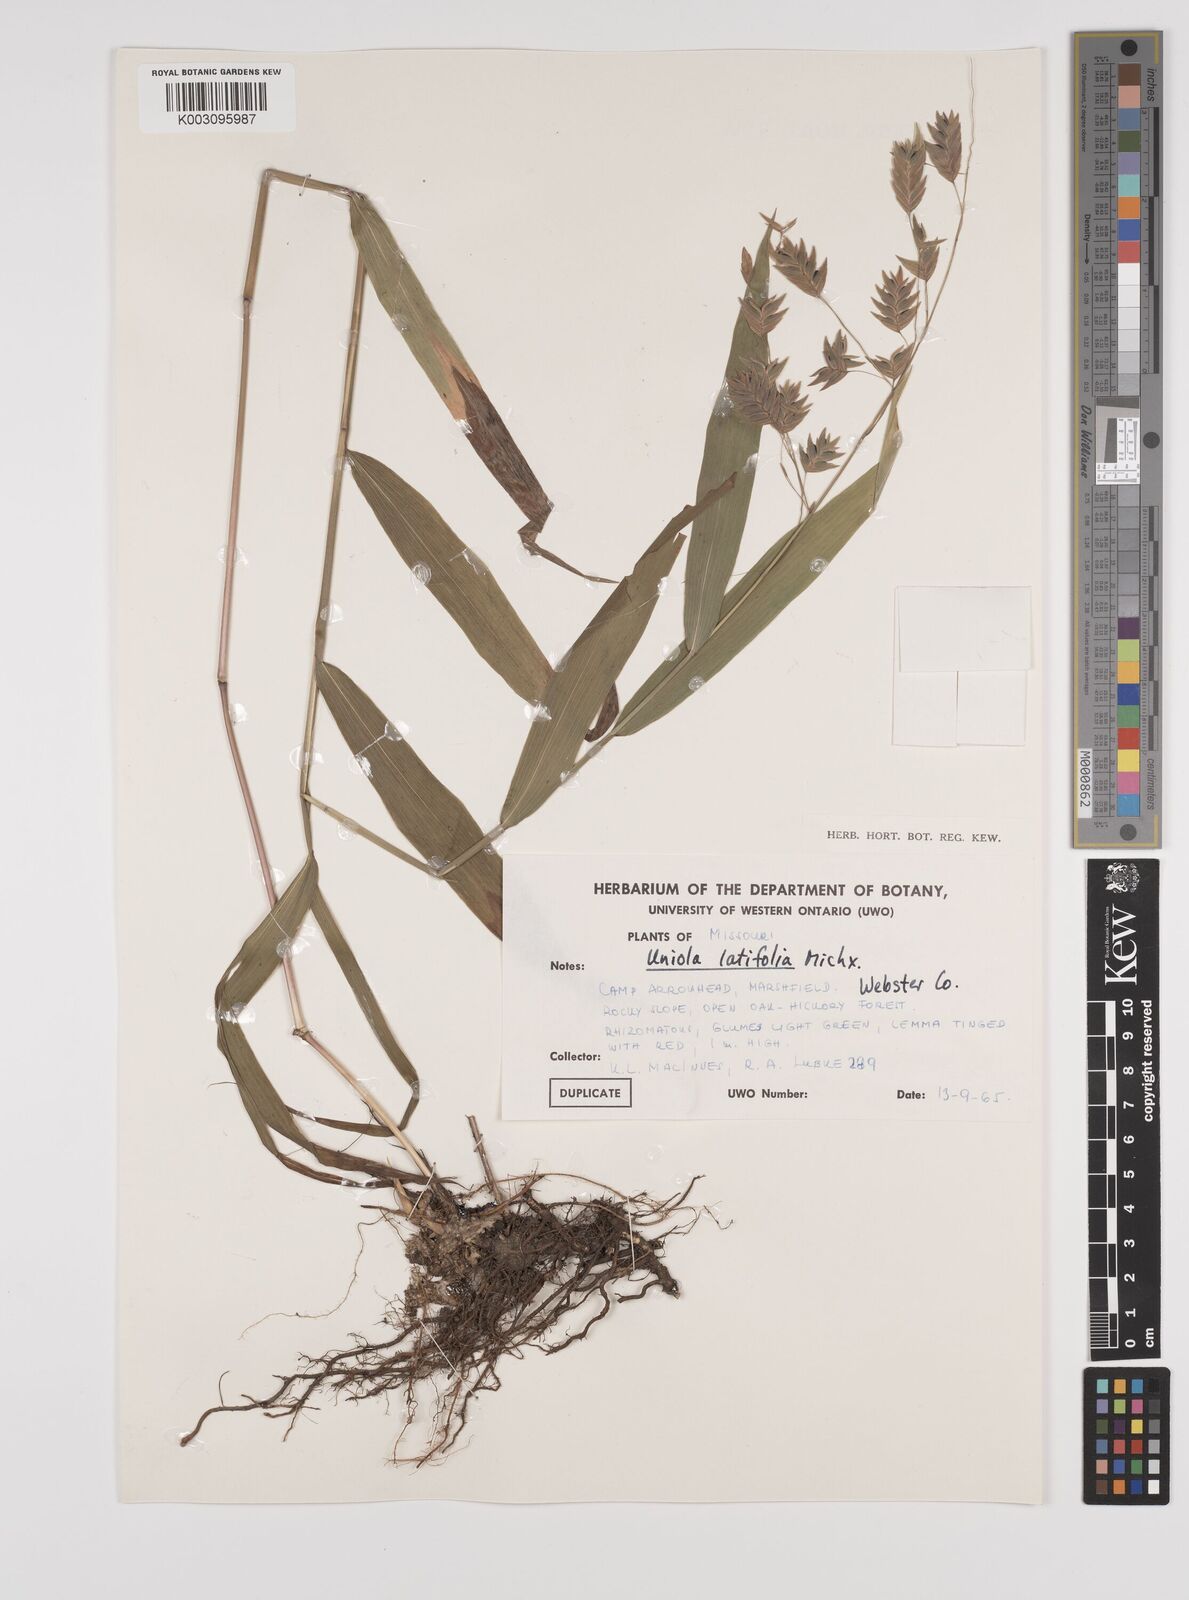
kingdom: Plantae
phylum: Tracheophyta
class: Liliopsida
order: Poales
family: Poaceae
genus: Chasmanthium
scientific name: Chasmanthium latifolium
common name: Broad-leaved chasmanthium
